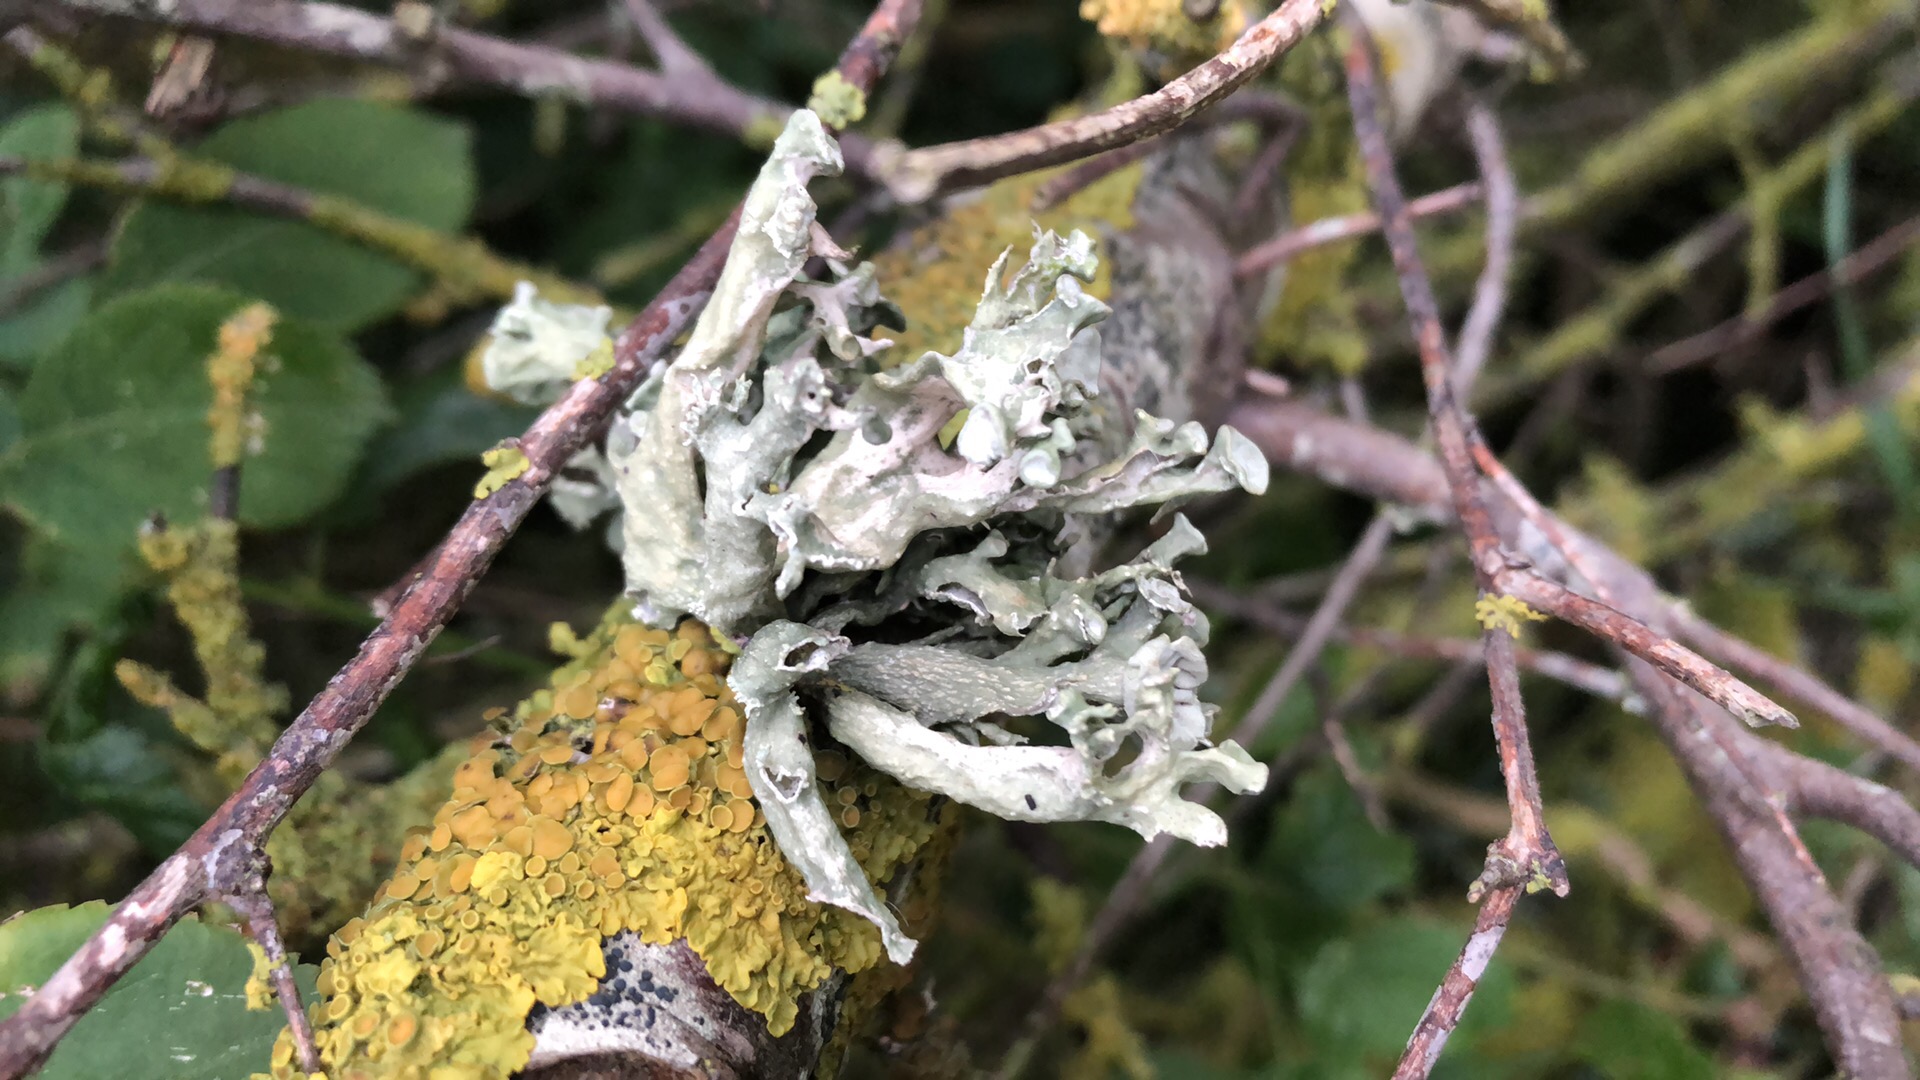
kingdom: Fungi
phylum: Ascomycota
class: Lecanoromycetes
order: Lecanorales
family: Ramalinaceae
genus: Ramalina
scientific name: Ramalina fastigiata
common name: tue-grenlav
